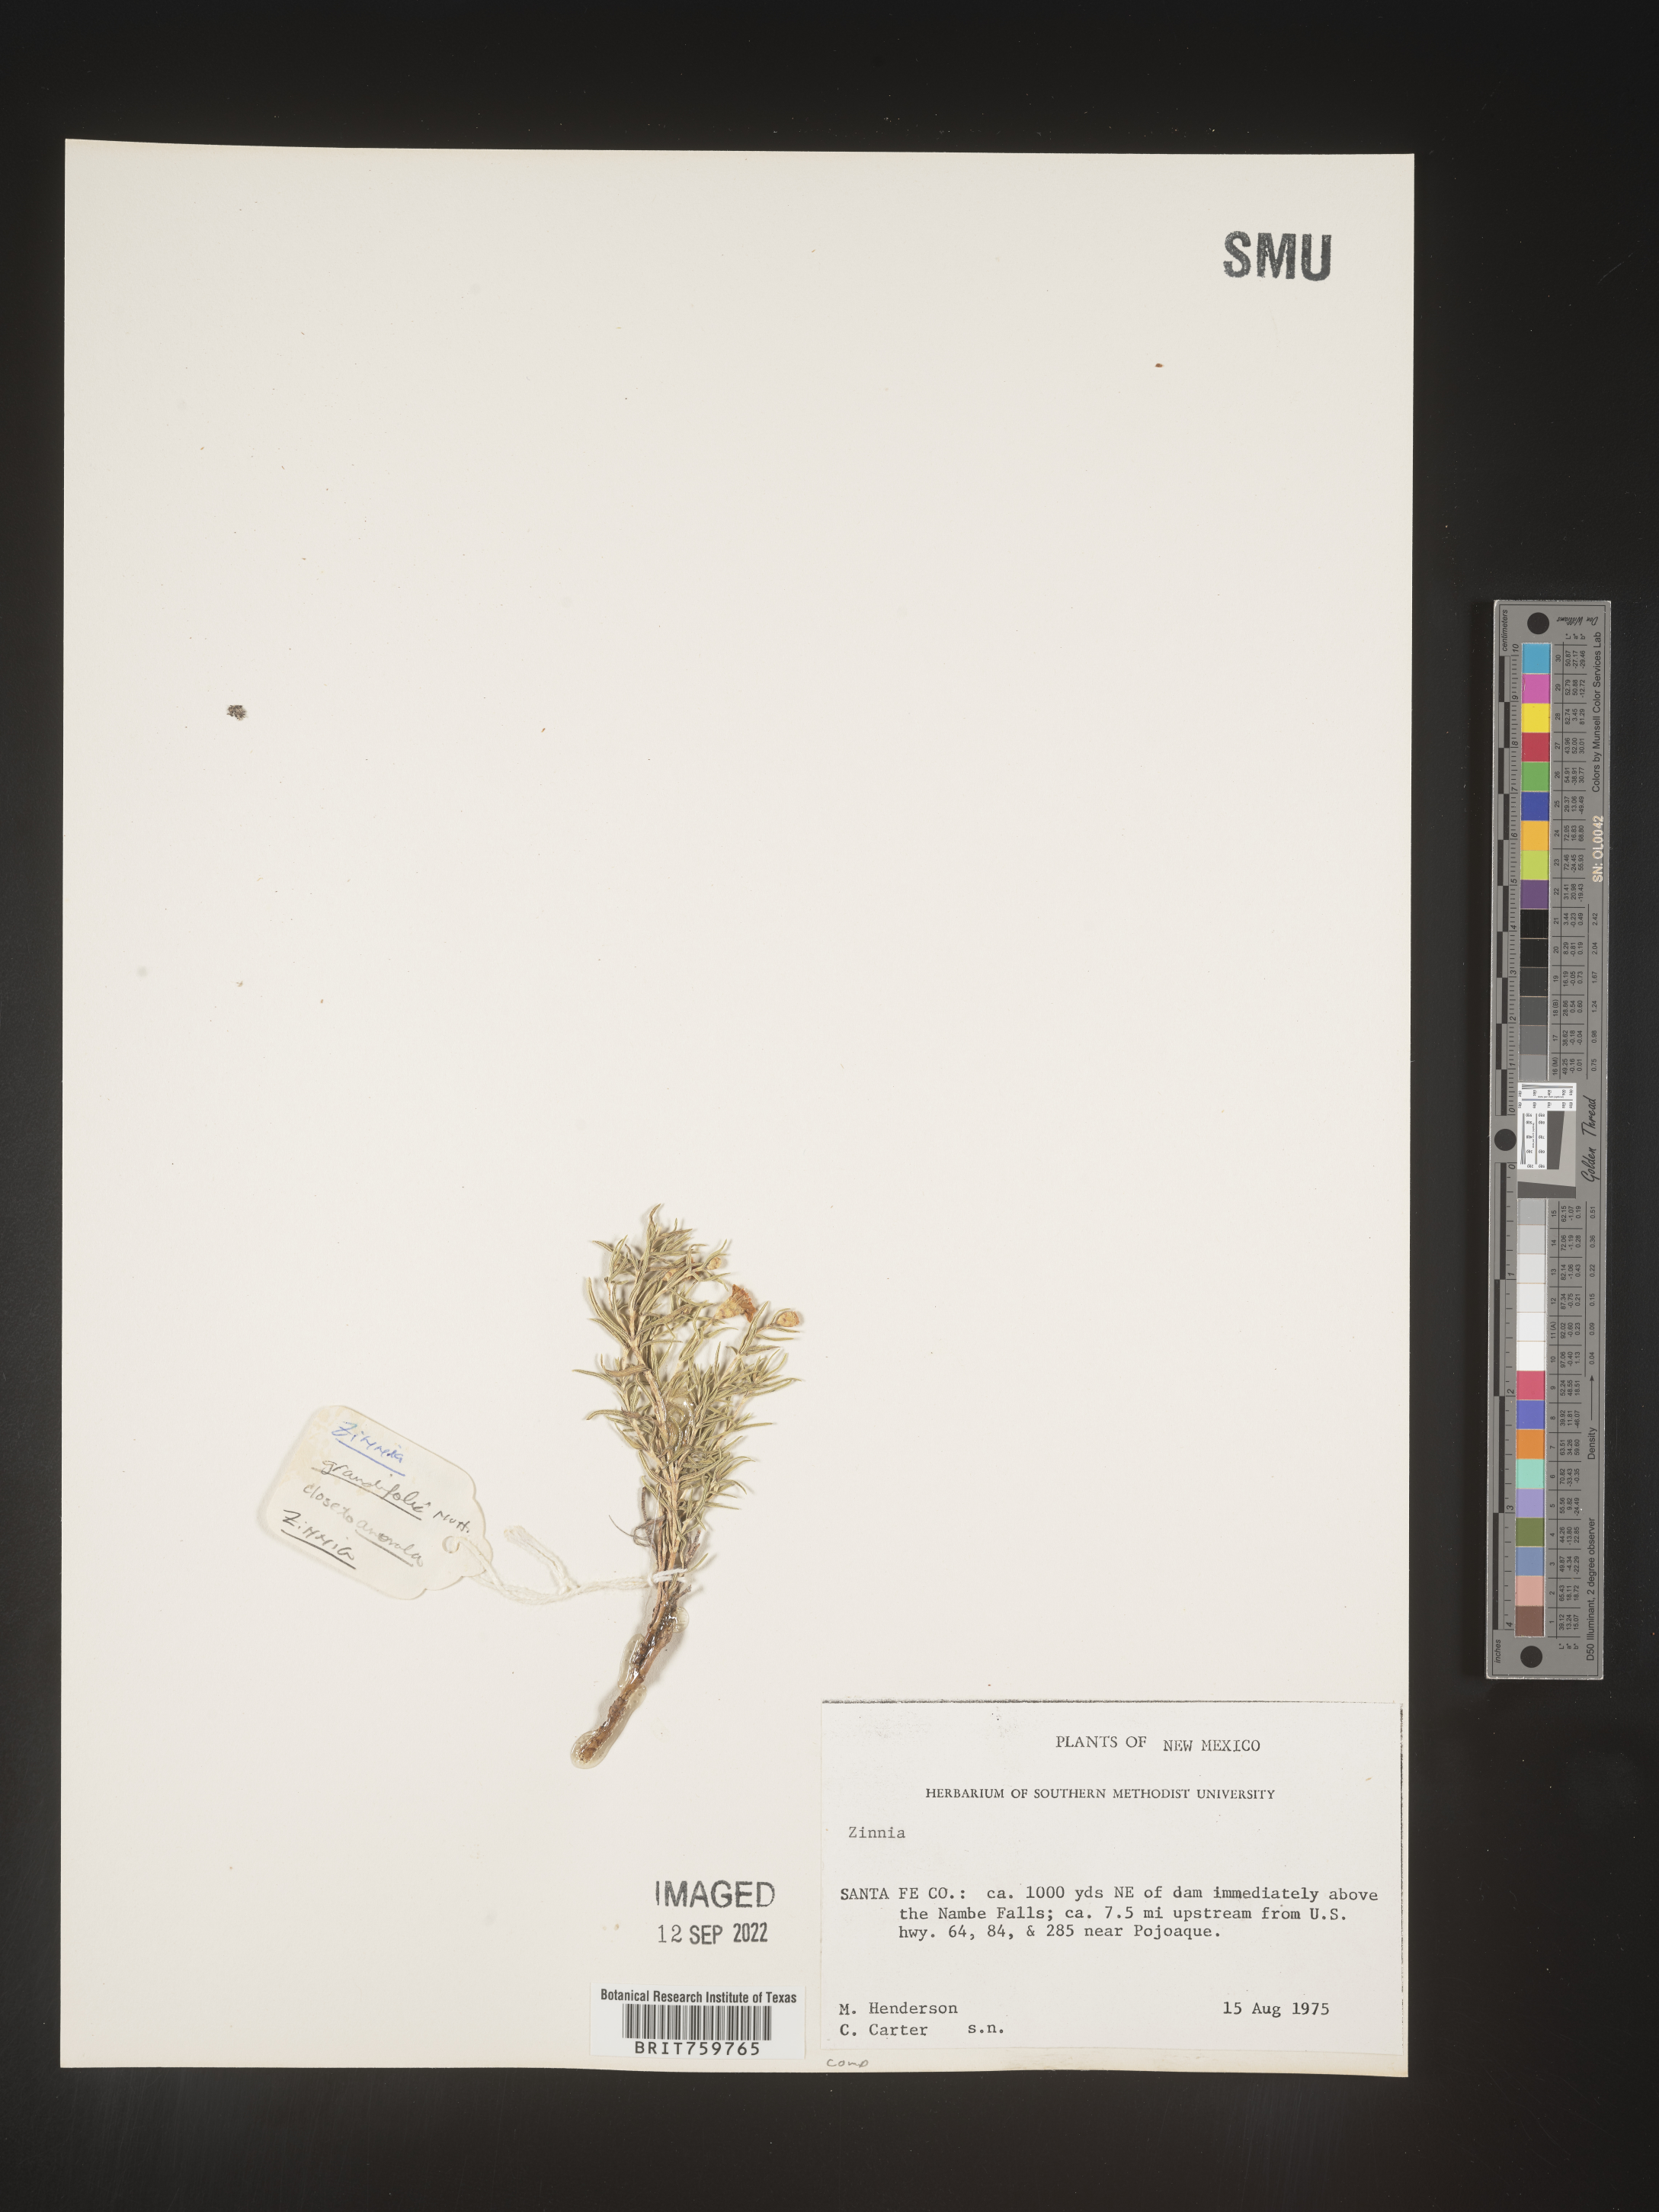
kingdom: Plantae
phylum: Tracheophyta
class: Magnoliopsida
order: Asterales
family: Asteraceae
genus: Zinnia
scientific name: Zinnia grandiflora
